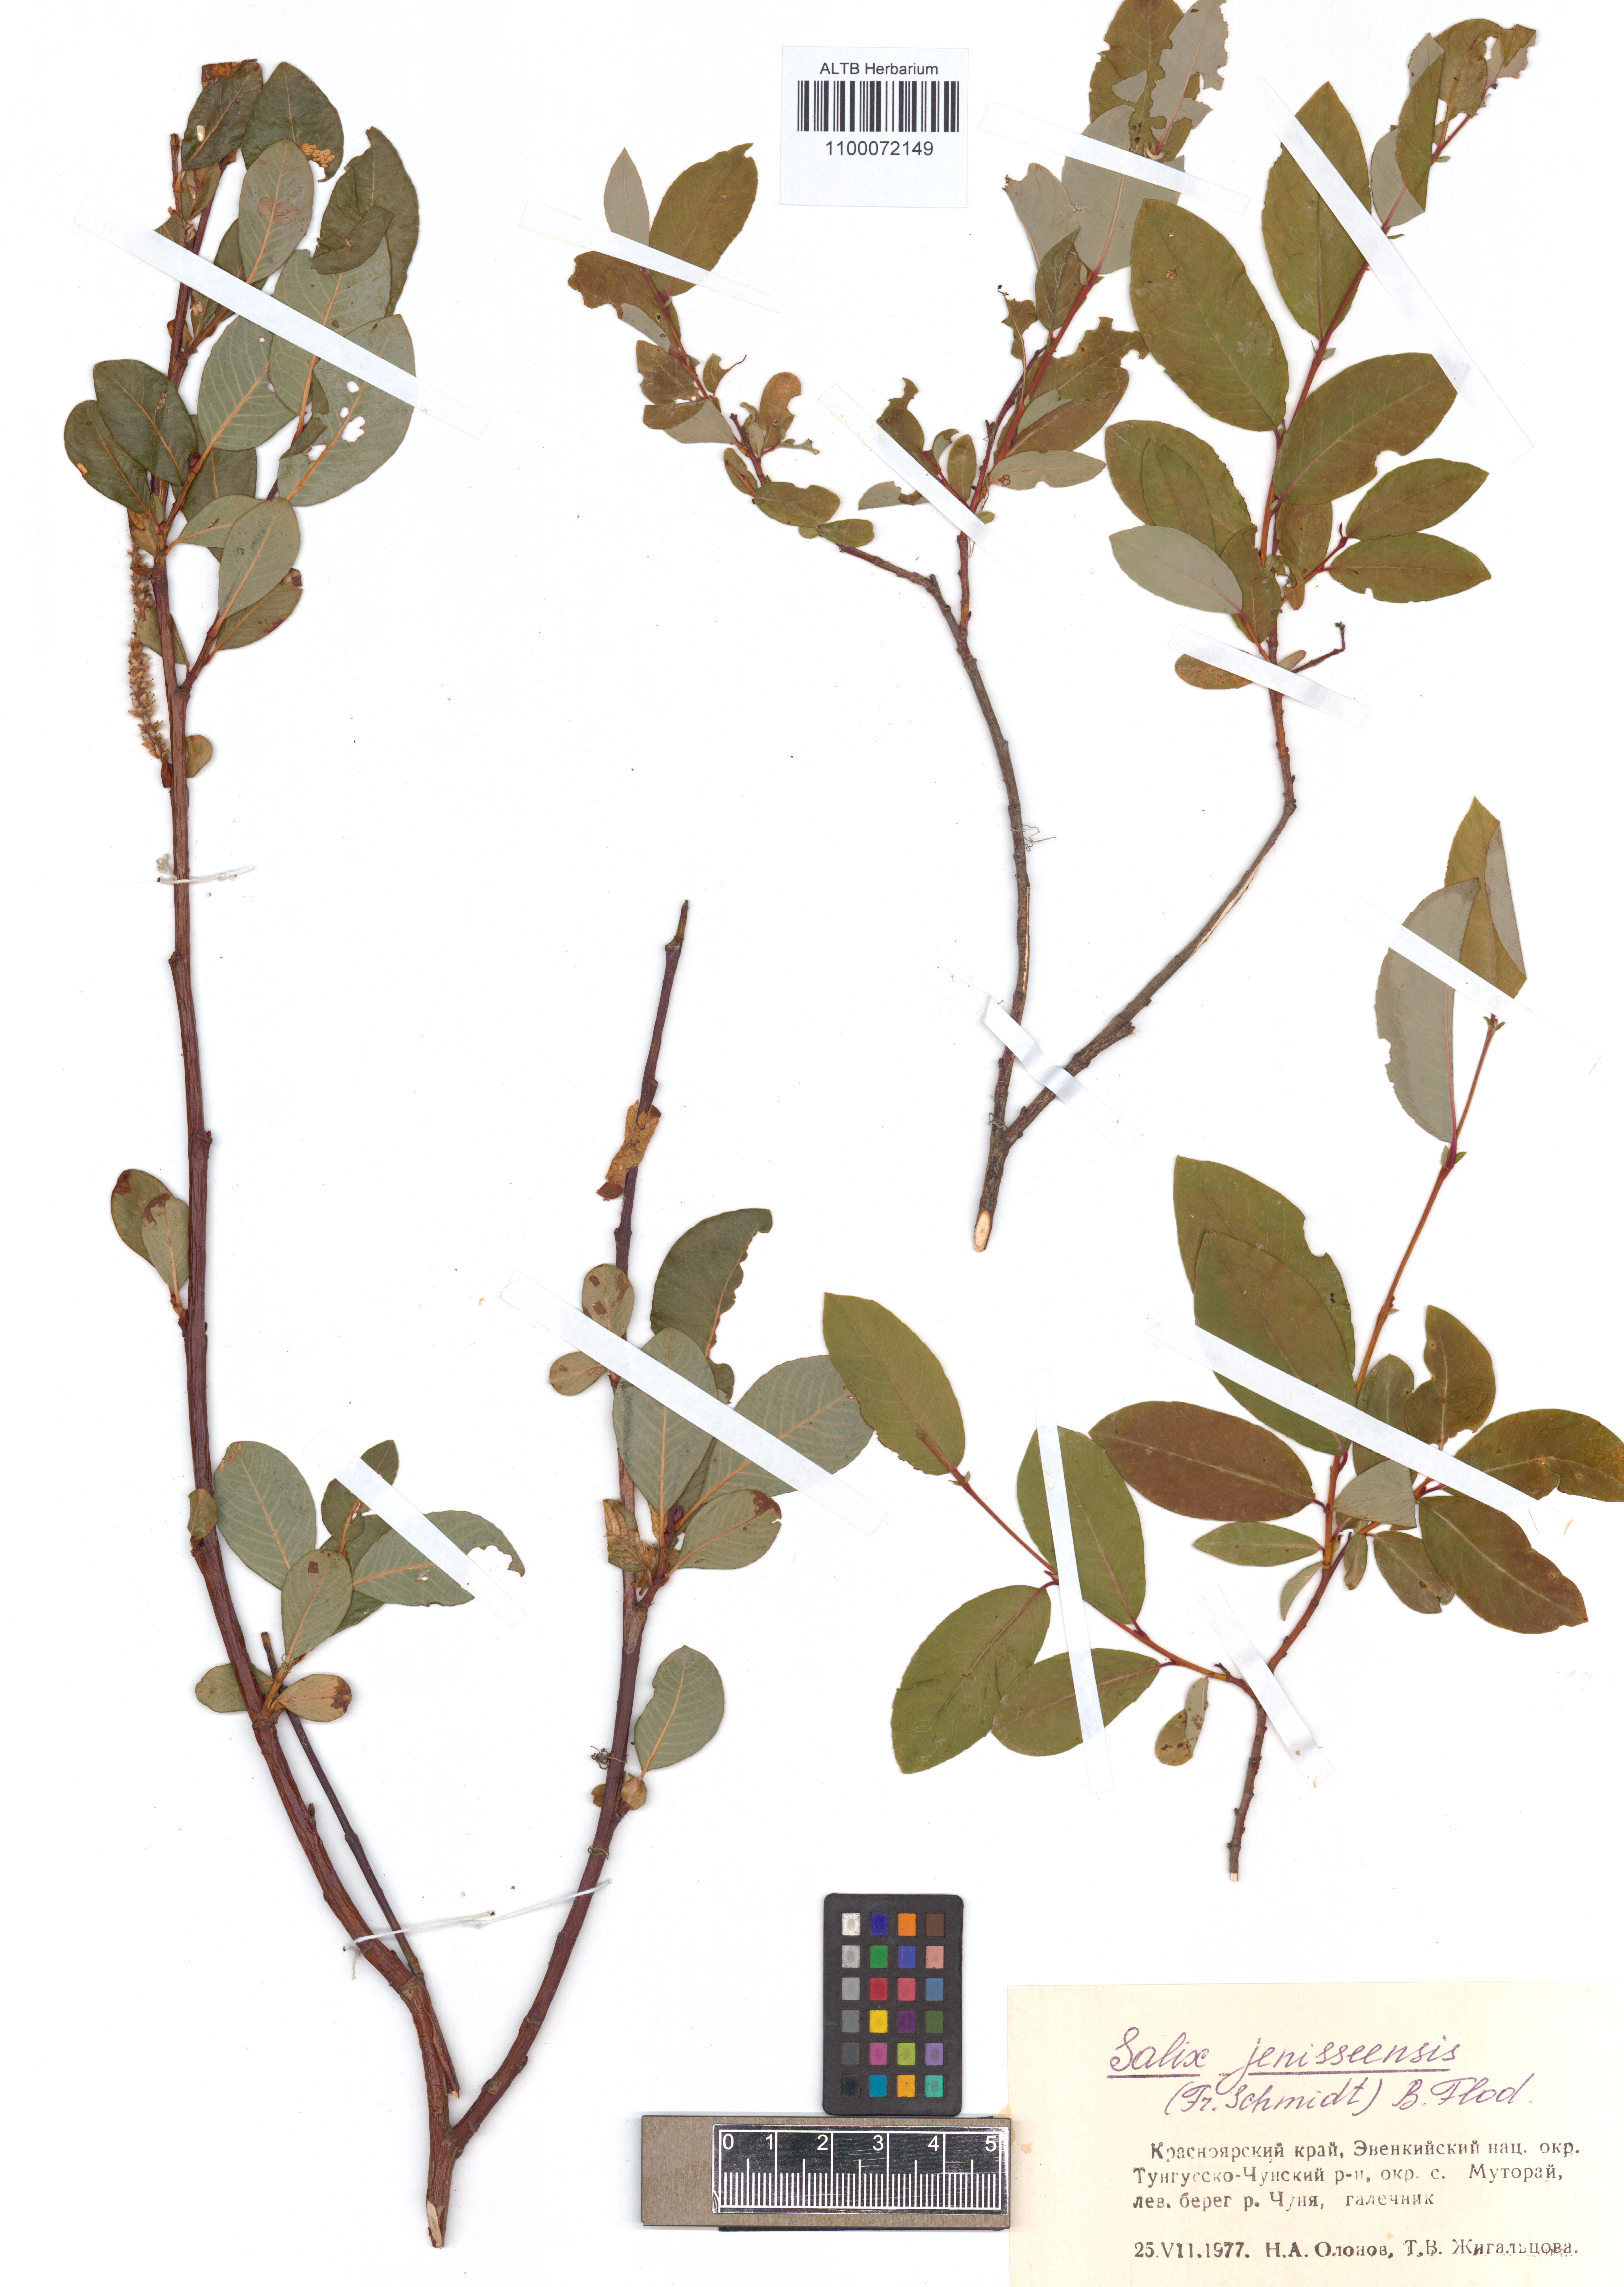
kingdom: Plantae
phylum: Tracheophyta
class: Magnoliopsida
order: Malpighiales
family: Salicaceae
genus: Salix
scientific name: Salix jenisseensis
